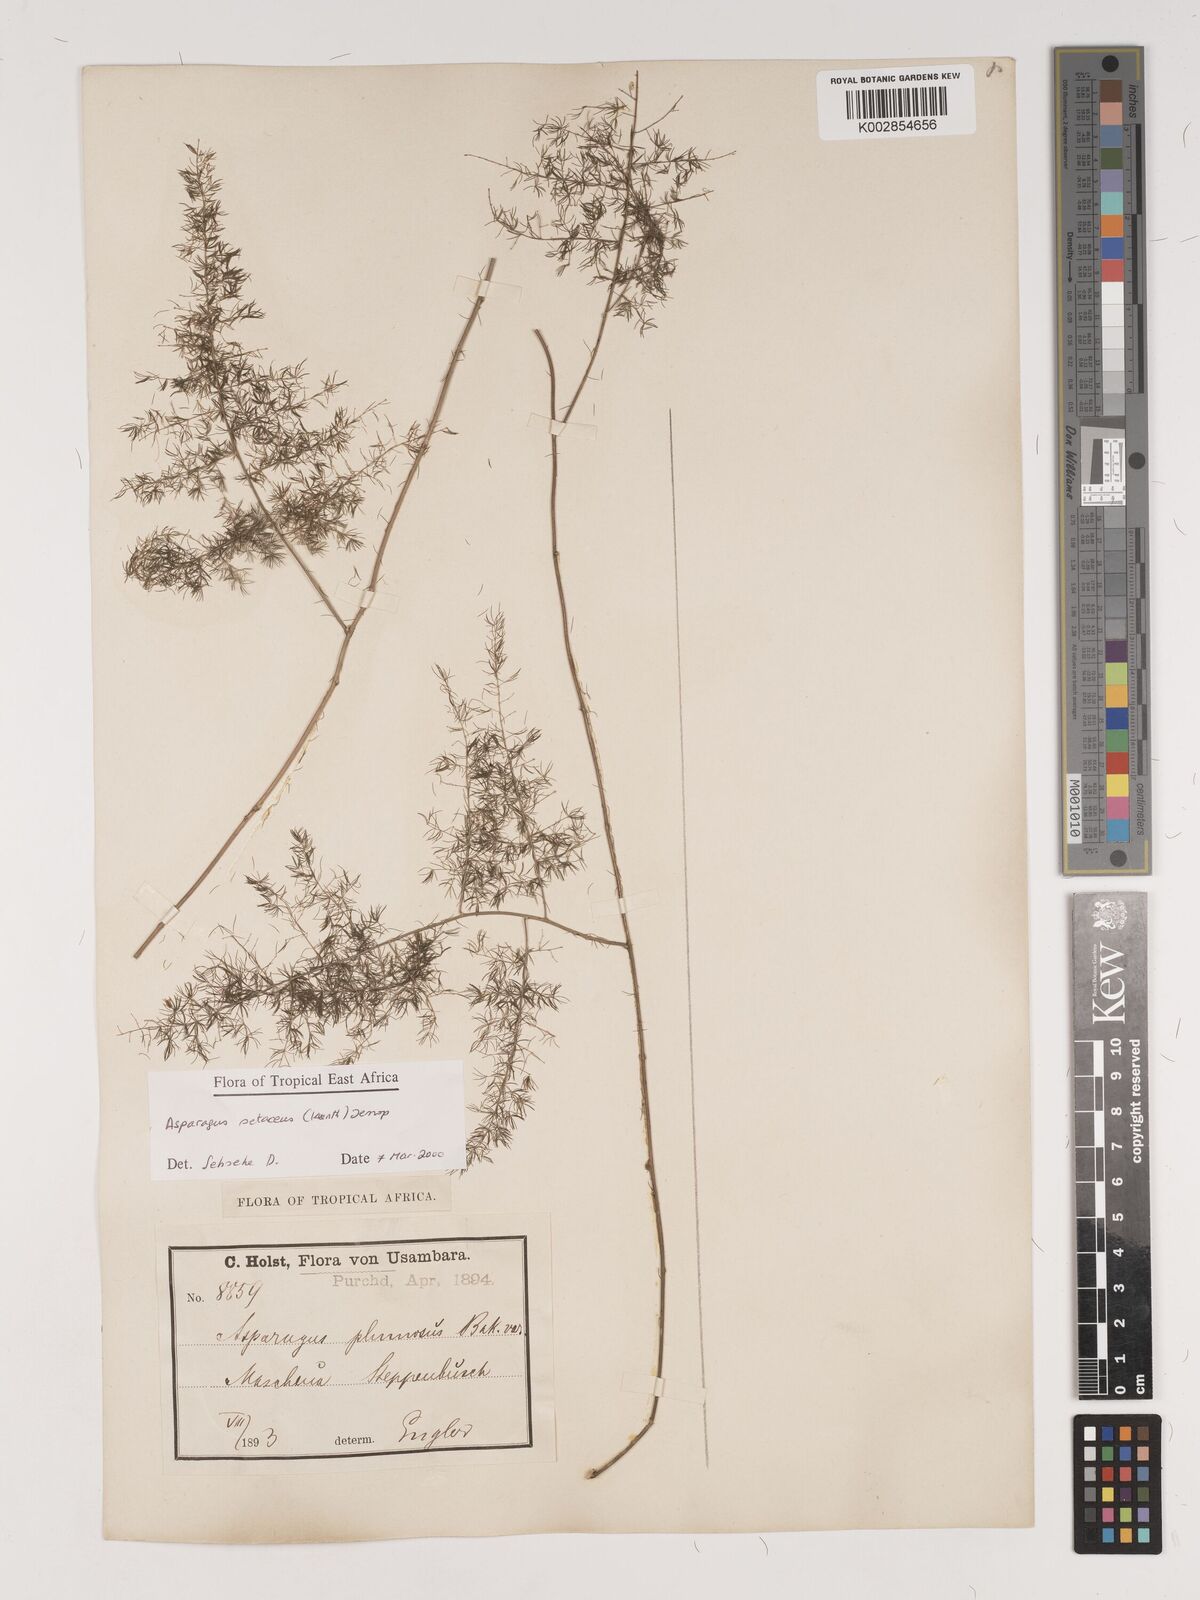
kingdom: Plantae
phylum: Tracheophyta
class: Liliopsida
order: Asparagales
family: Asparagaceae
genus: Asparagus
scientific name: Asparagus setaceus
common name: Common asparagus fern
